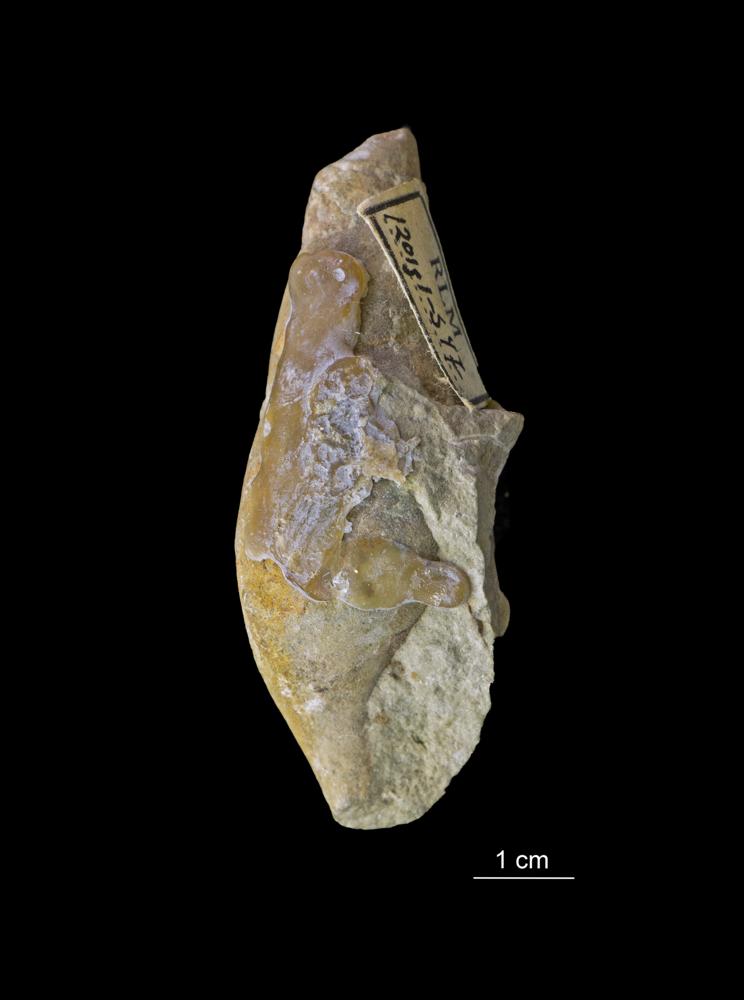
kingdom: Animalia
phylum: Mollusca
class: Gastropoda
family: Subulitidae
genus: Subulites
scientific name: Subulites subula
